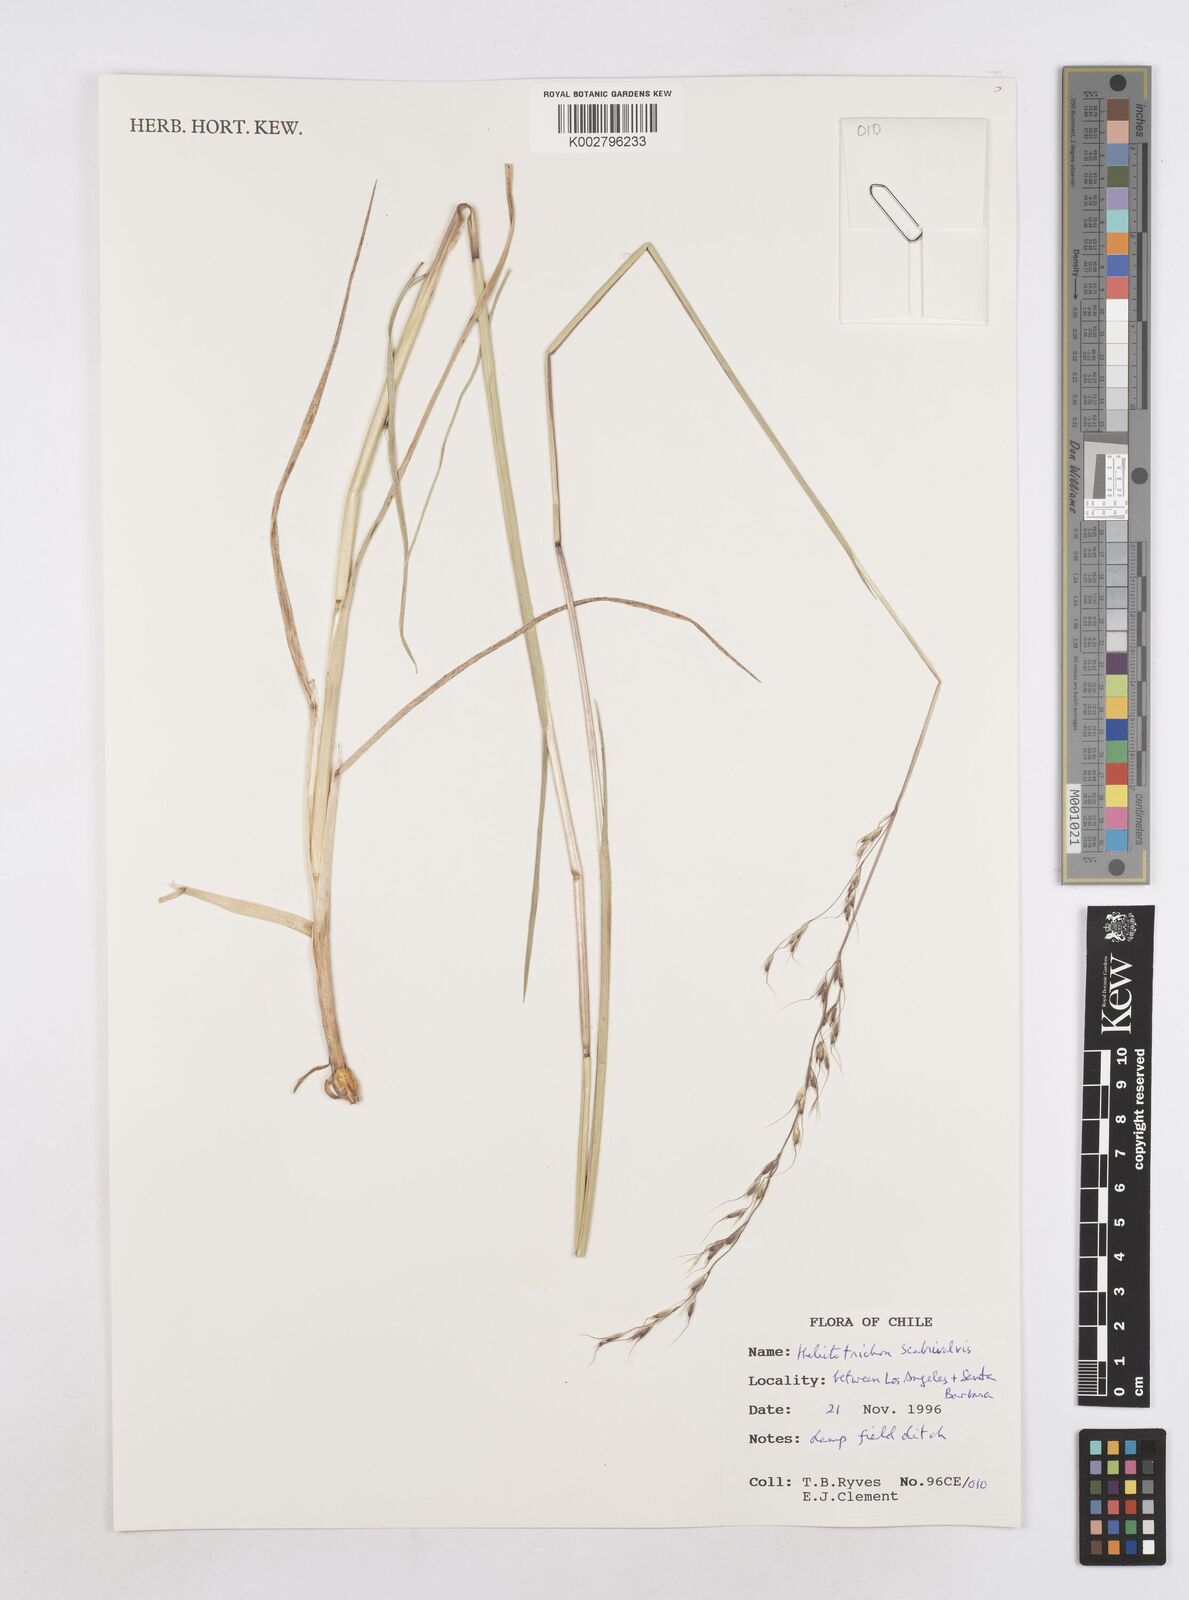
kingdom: Plantae
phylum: Tracheophyta
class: Liliopsida
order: Poales
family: Poaceae
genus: Helictotrichon
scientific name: Helictotrichon
